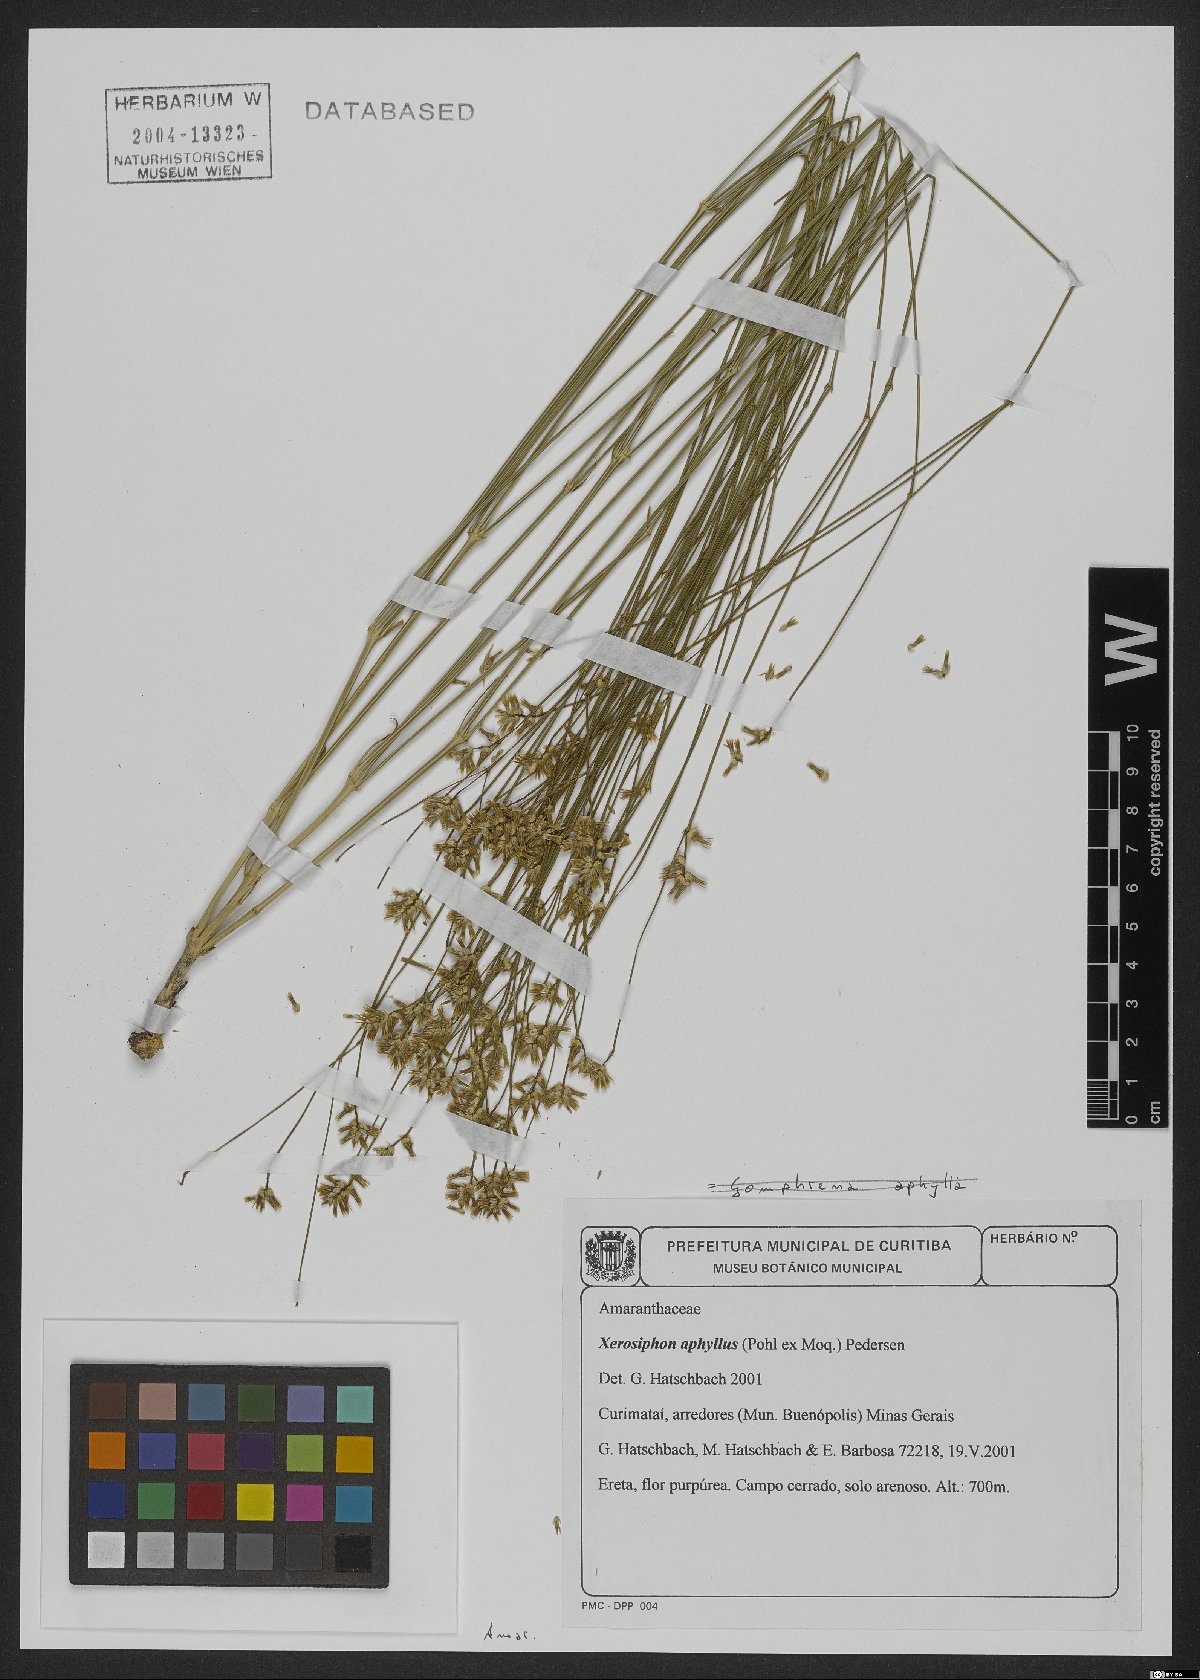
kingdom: Plantae
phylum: Tracheophyta
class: Magnoliopsida
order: Caryophyllales
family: Amaranthaceae
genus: Gomphrena
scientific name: Gomphrena aphylla
